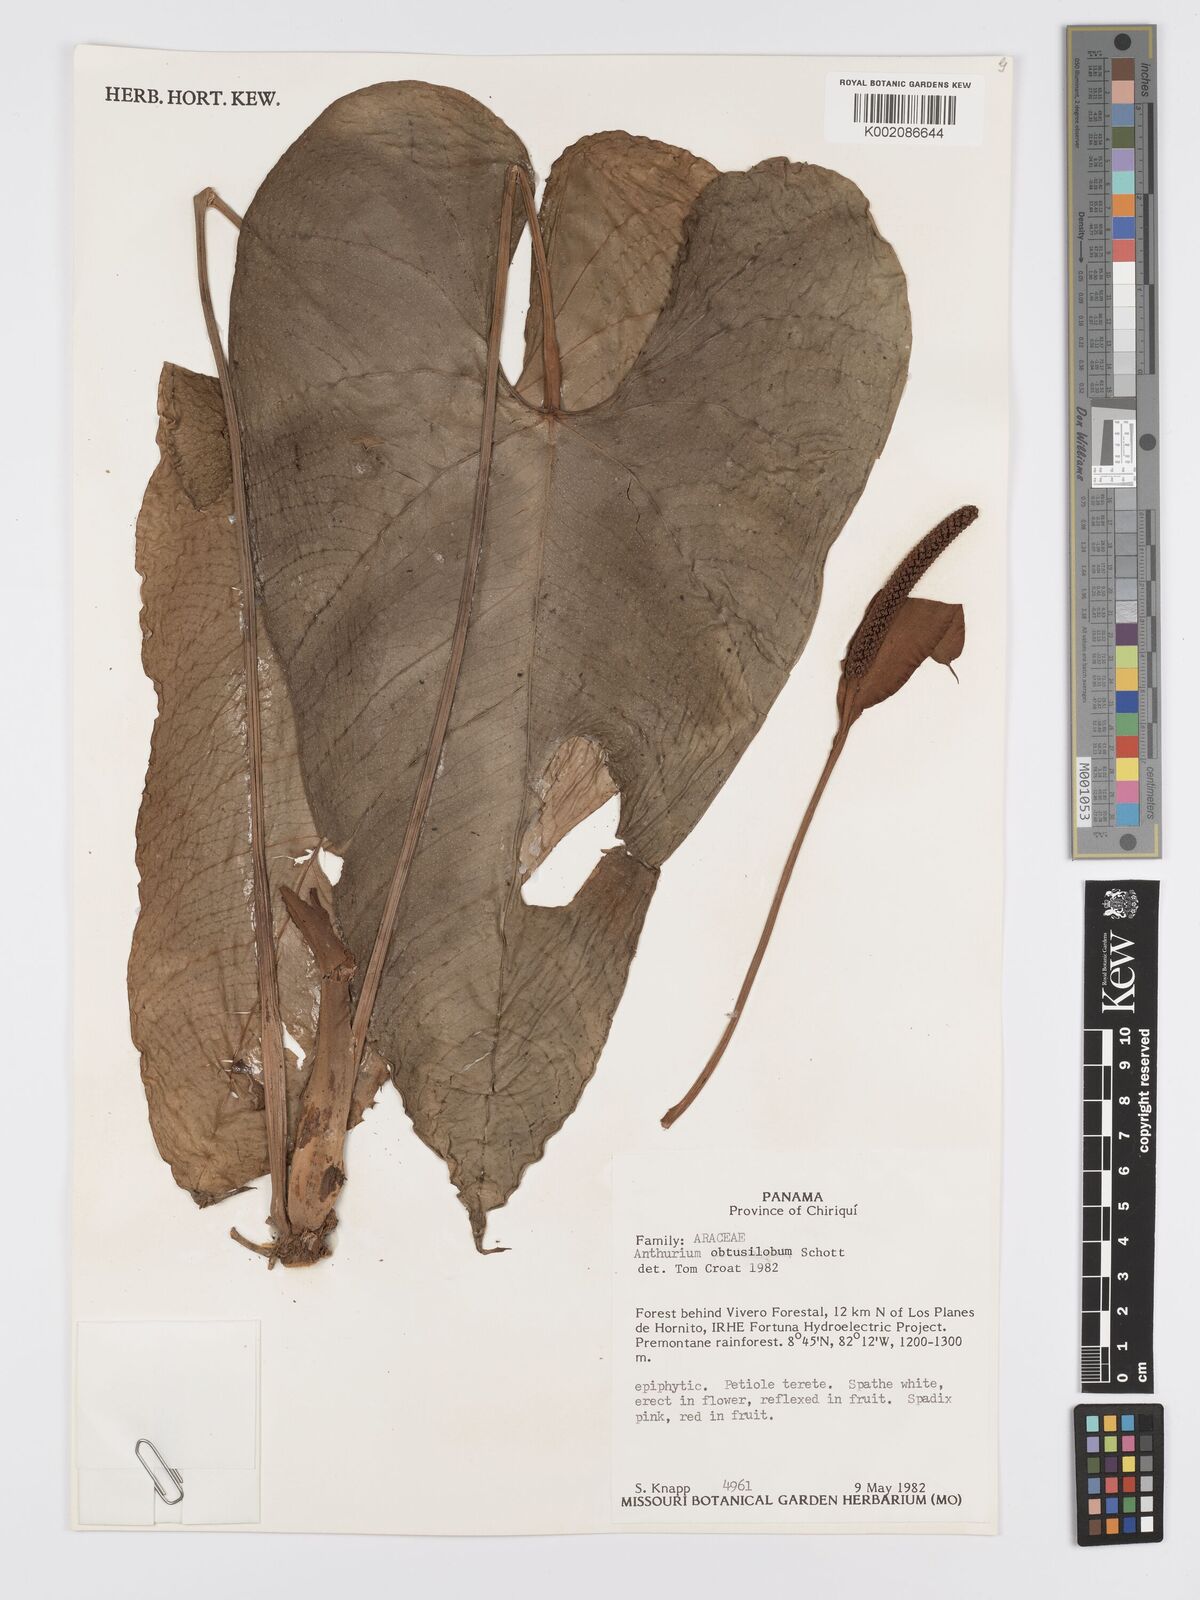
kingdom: Plantae
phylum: Tracheophyta
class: Liliopsida
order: Alismatales
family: Araceae
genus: Anthurium
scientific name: Anthurium obtusilobum
